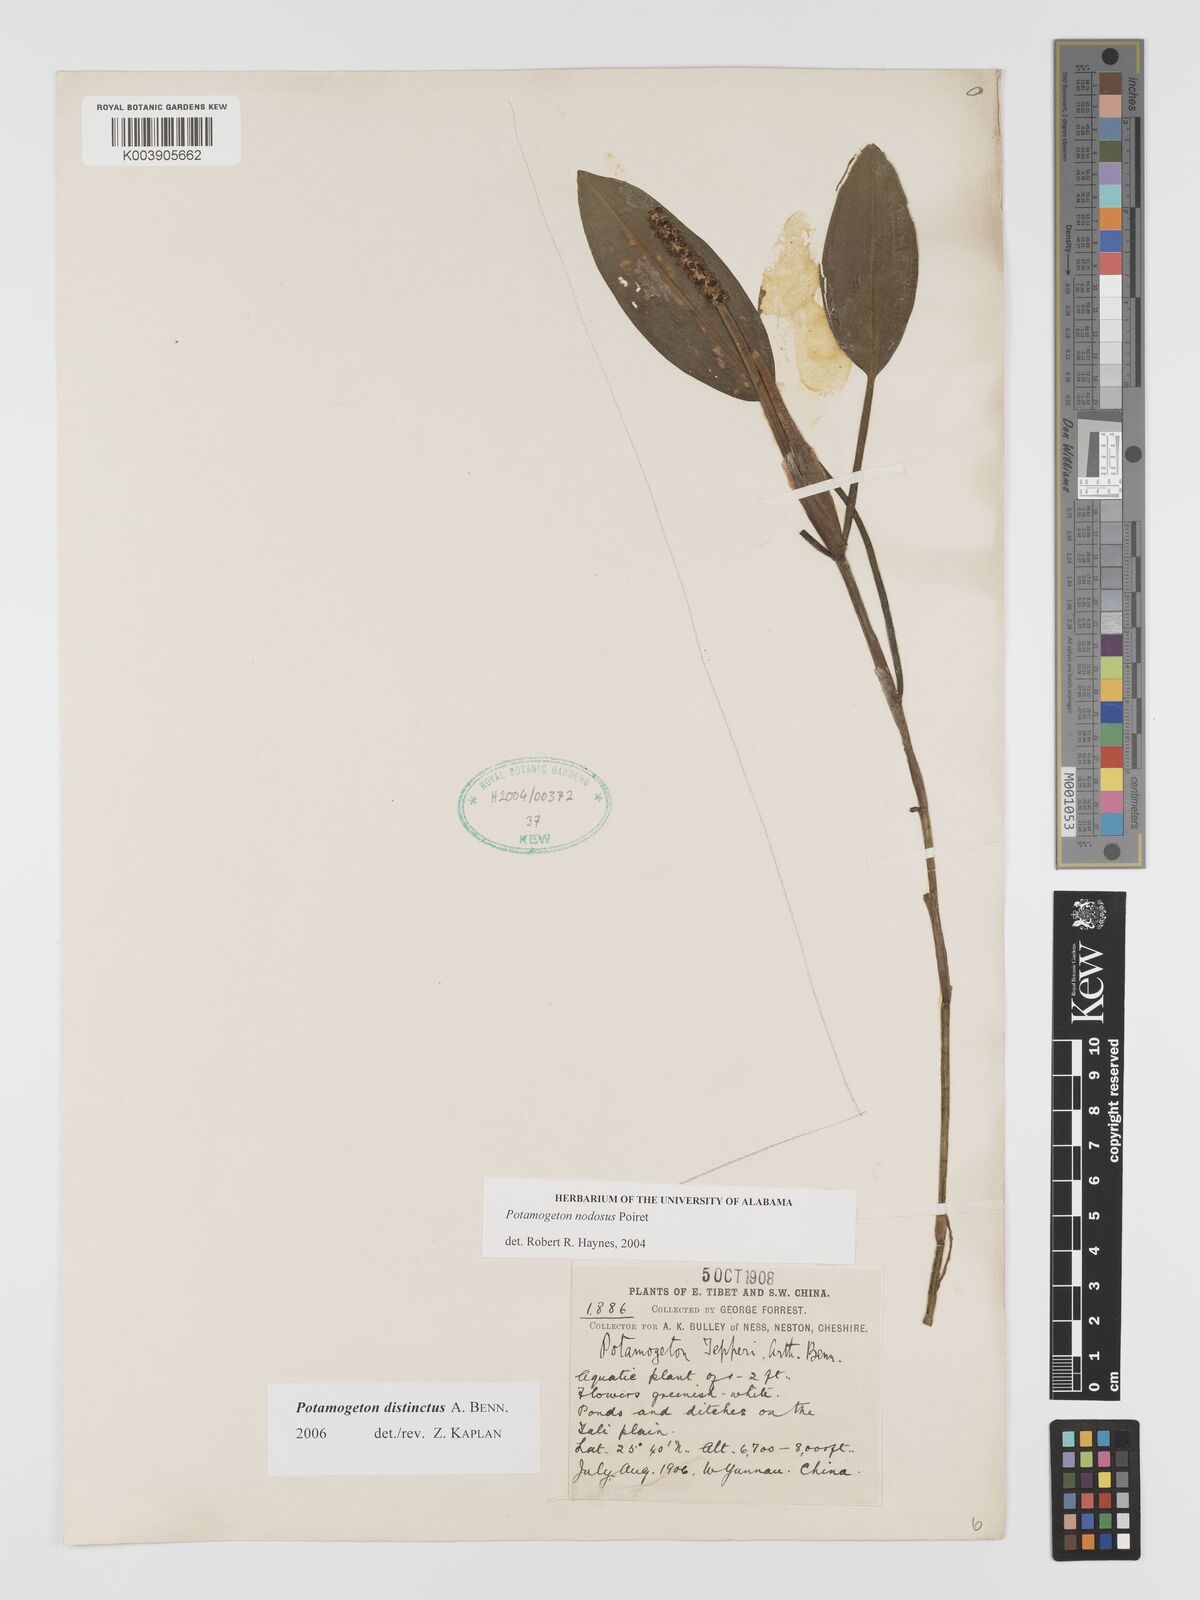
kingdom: Plantae
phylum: Tracheophyta
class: Liliopsida
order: Alismatales
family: Potamogetonaceae
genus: Potamogeton
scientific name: Potamogeton distinctus
